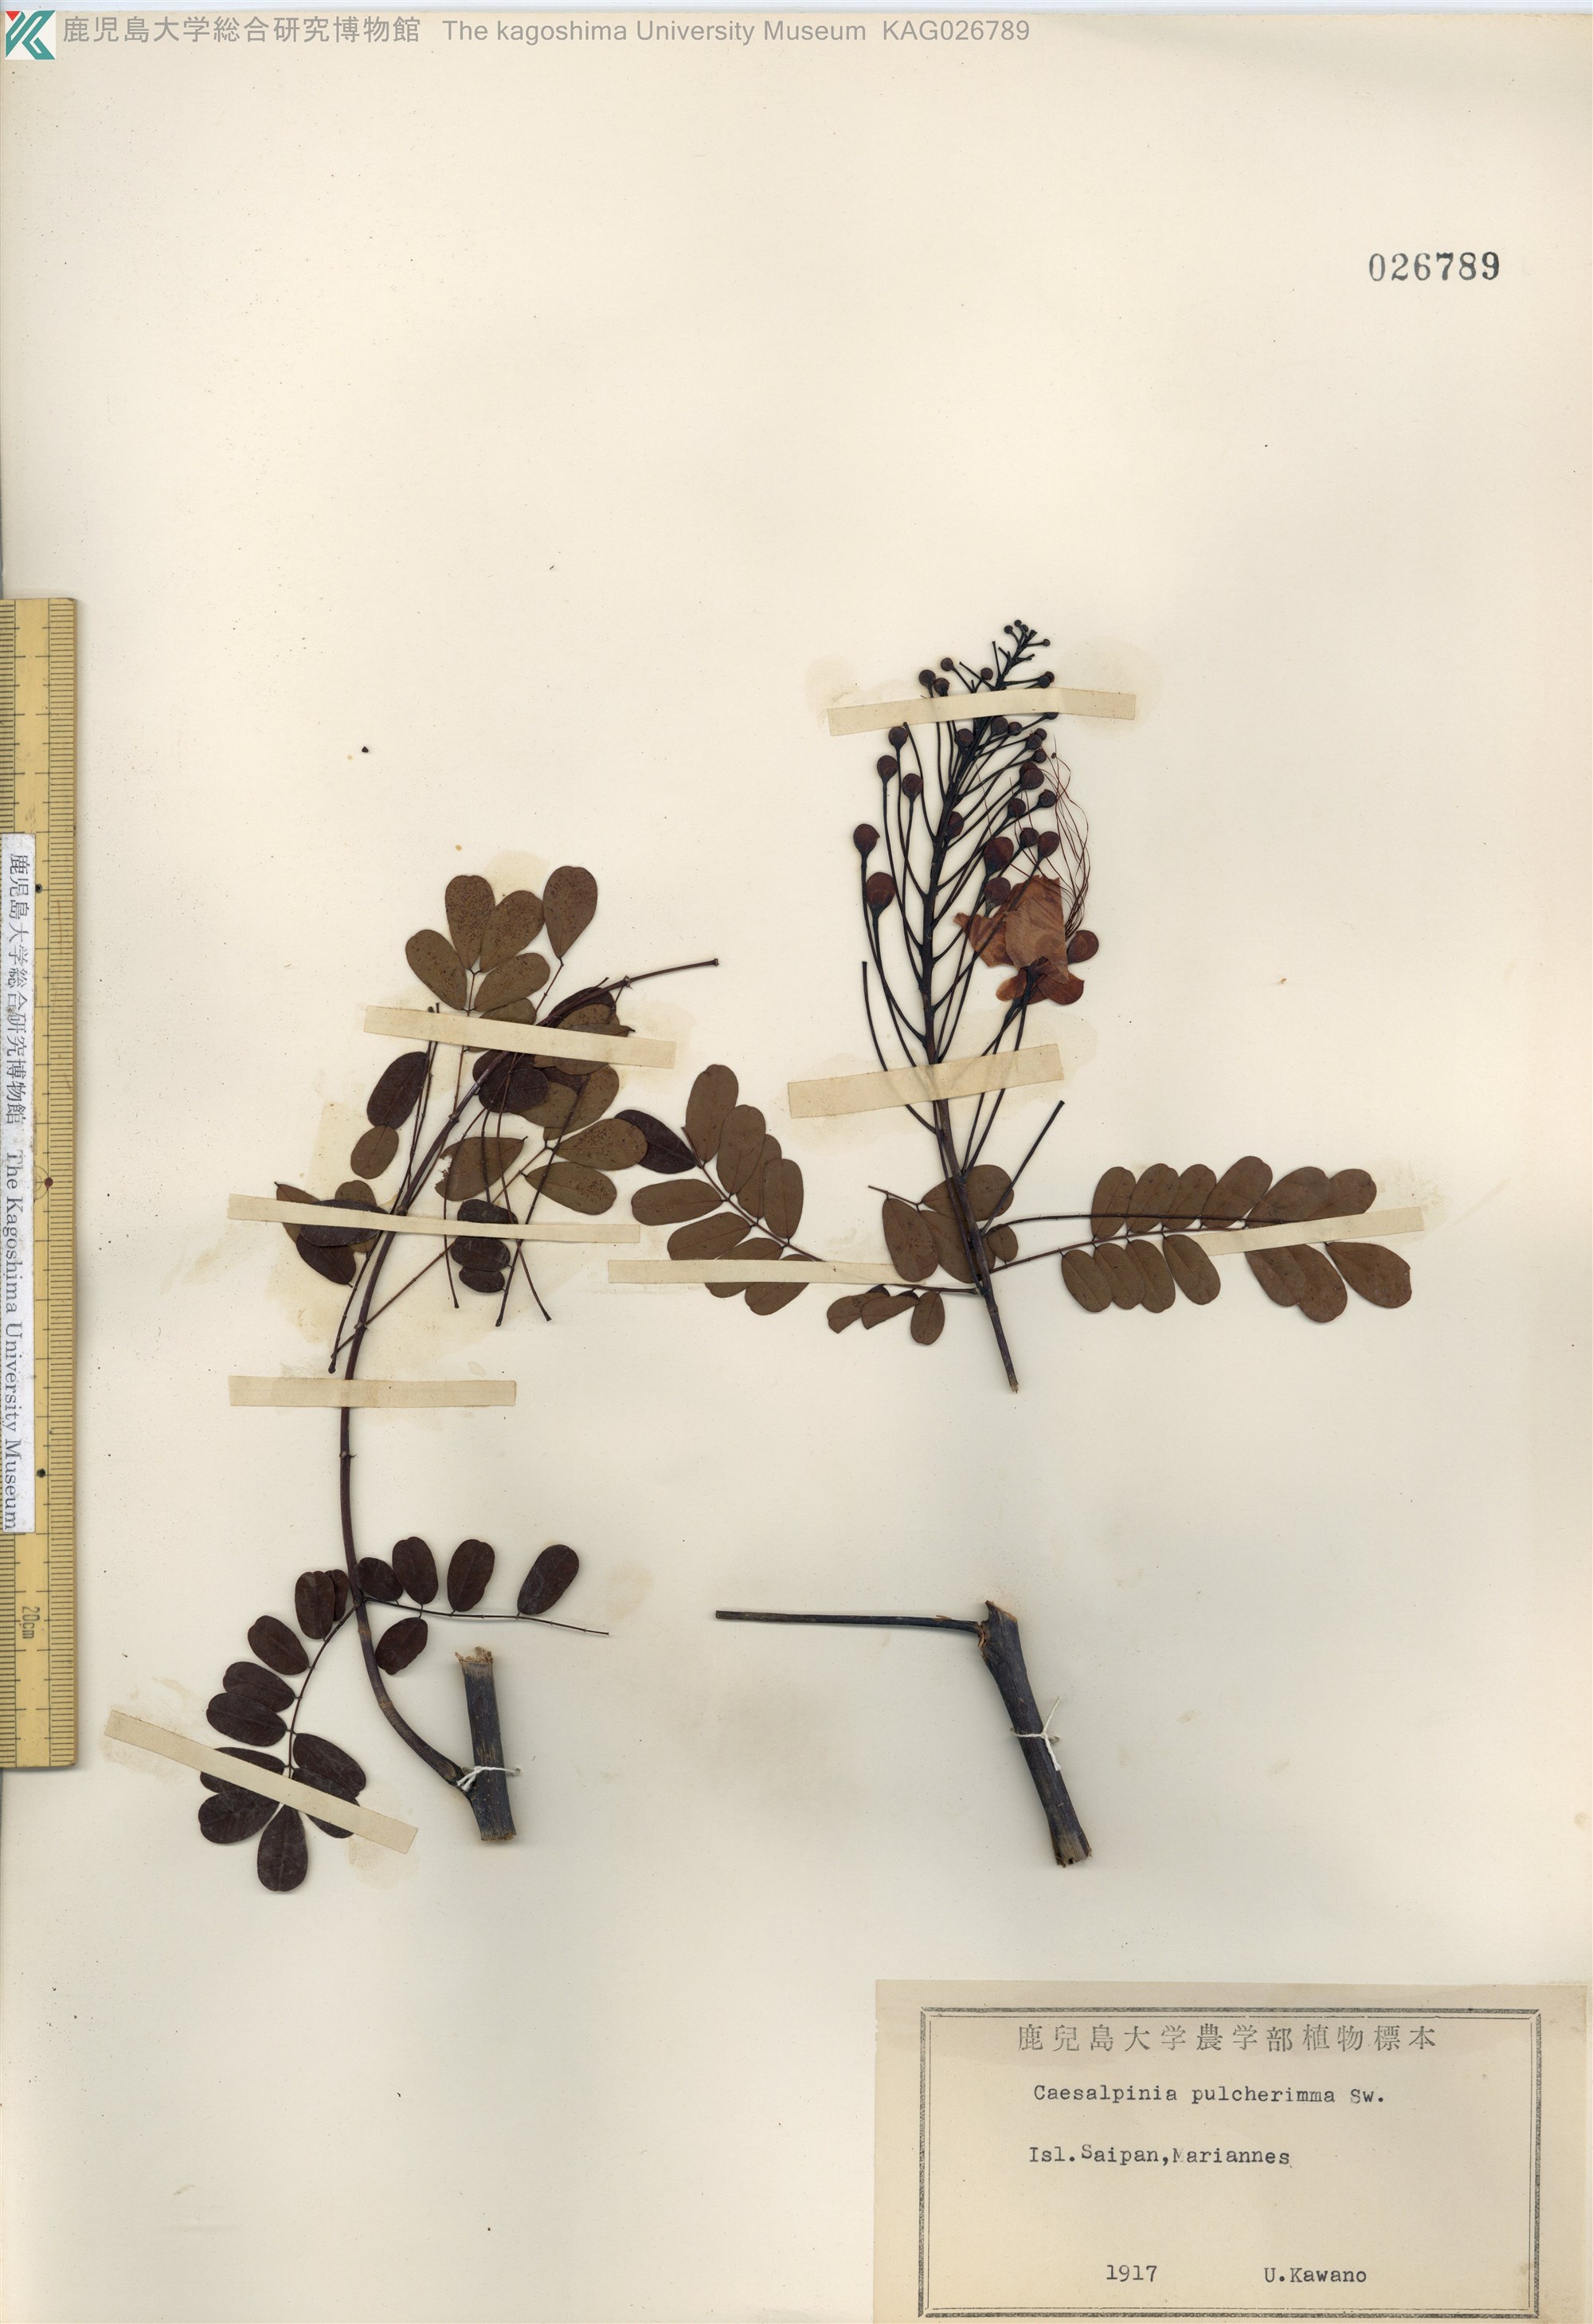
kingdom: Plantae
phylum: Tracheophyta
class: Magnoliopsida
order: Fabales
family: Fabaceae
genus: Caesalpinia
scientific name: Caesalpinia pulcherrima
